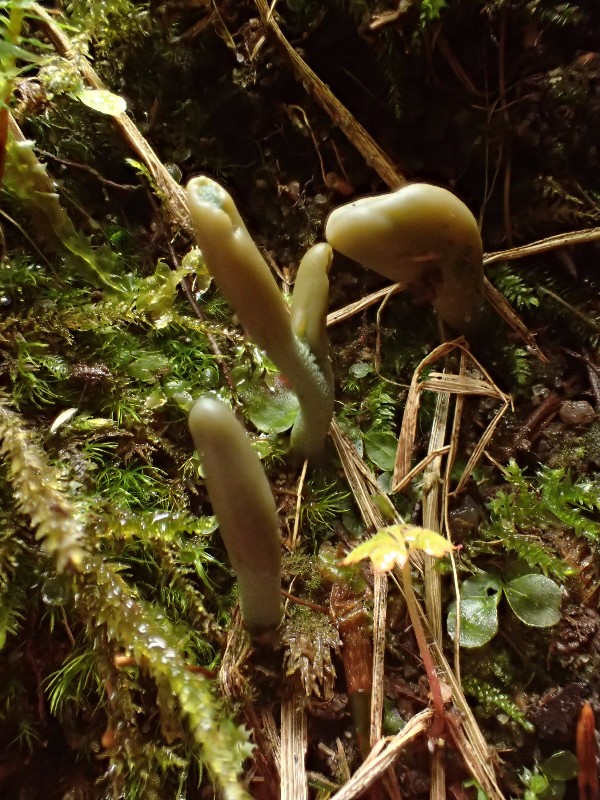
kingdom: Fungi
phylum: Ascomycota
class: Leotiomycetes
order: Leotiales
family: Leotiaceae
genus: Microglossum
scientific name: Microglossum griseoviride
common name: grågrøn farvetunge
